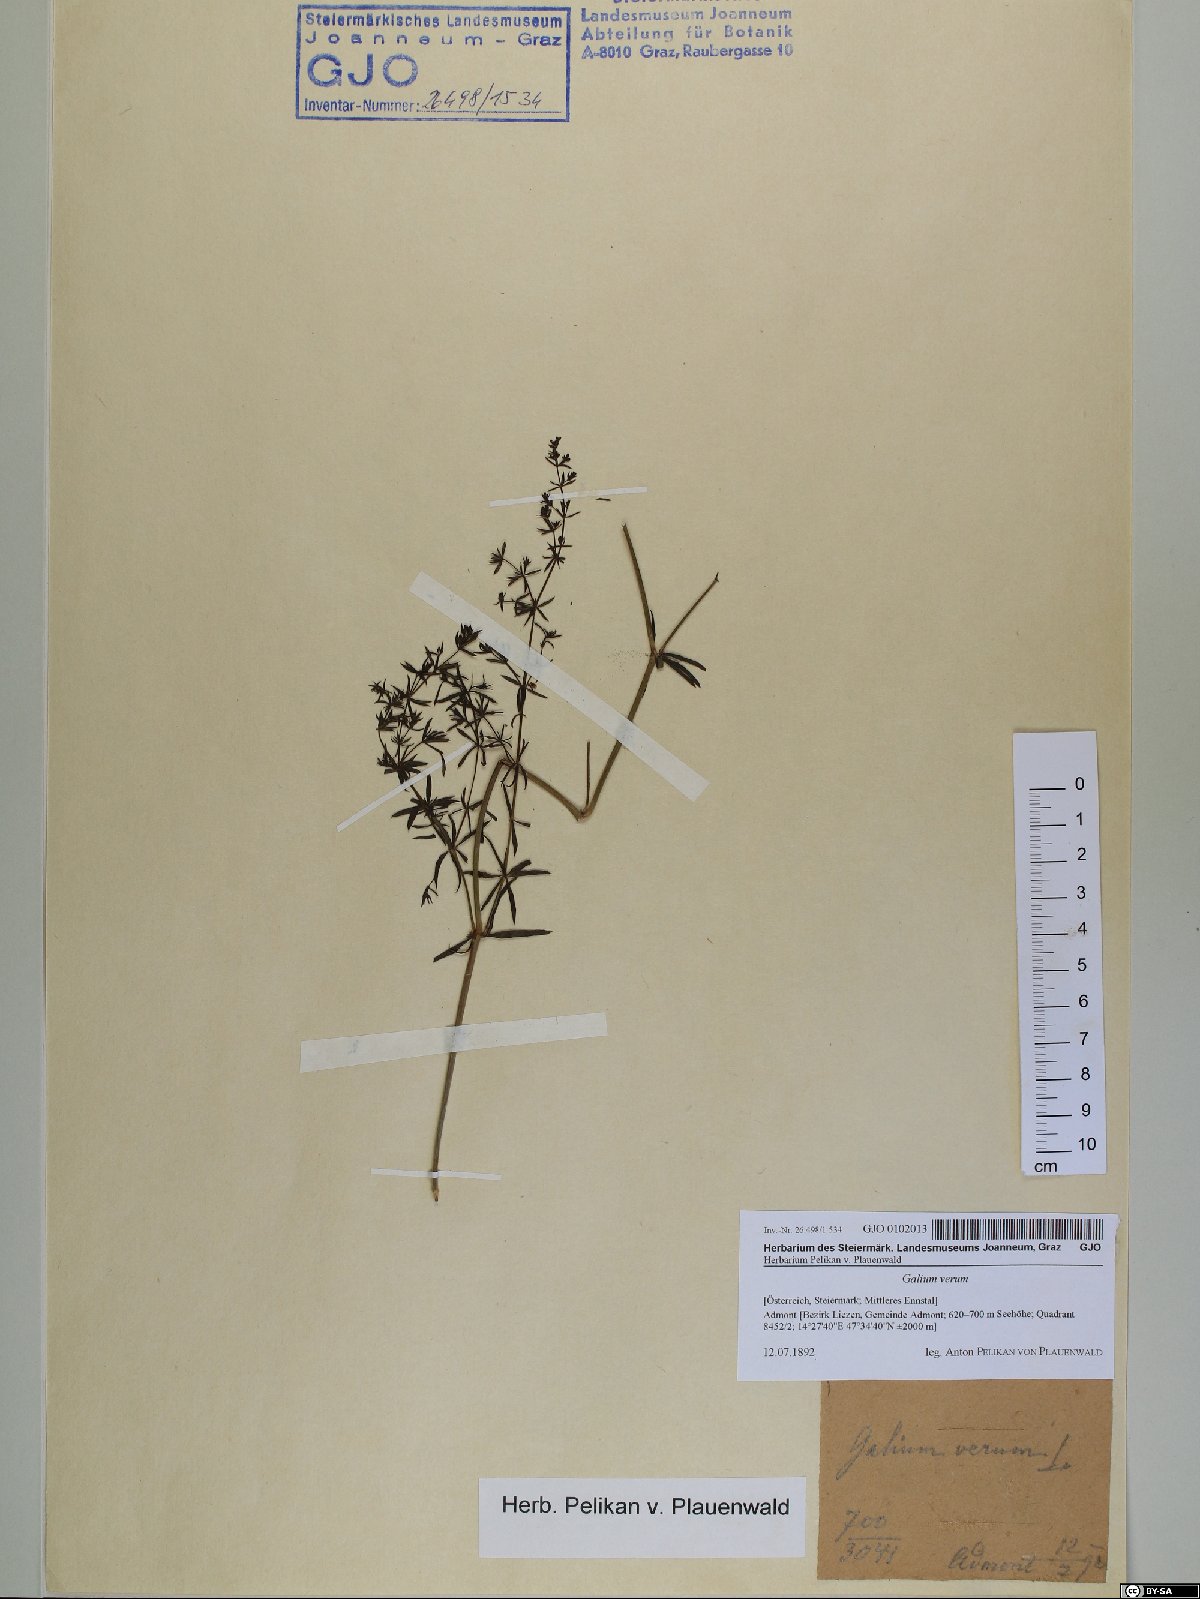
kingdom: Plantae
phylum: Tracheophyta
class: Magnoliopsida
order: Gentianales
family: Rubiaceae
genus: Galium
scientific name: Galium verum
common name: Lady's bedstraw
